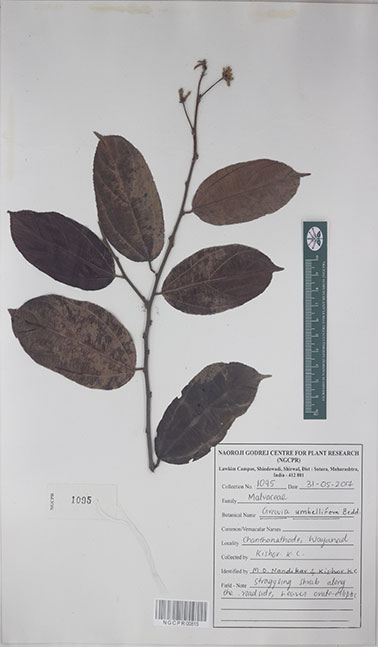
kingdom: Plantae
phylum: Tracheophyta
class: Magnoliopsida
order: Malvales
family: Malvaceae
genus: Grewia
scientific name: Grewia umbellifera
